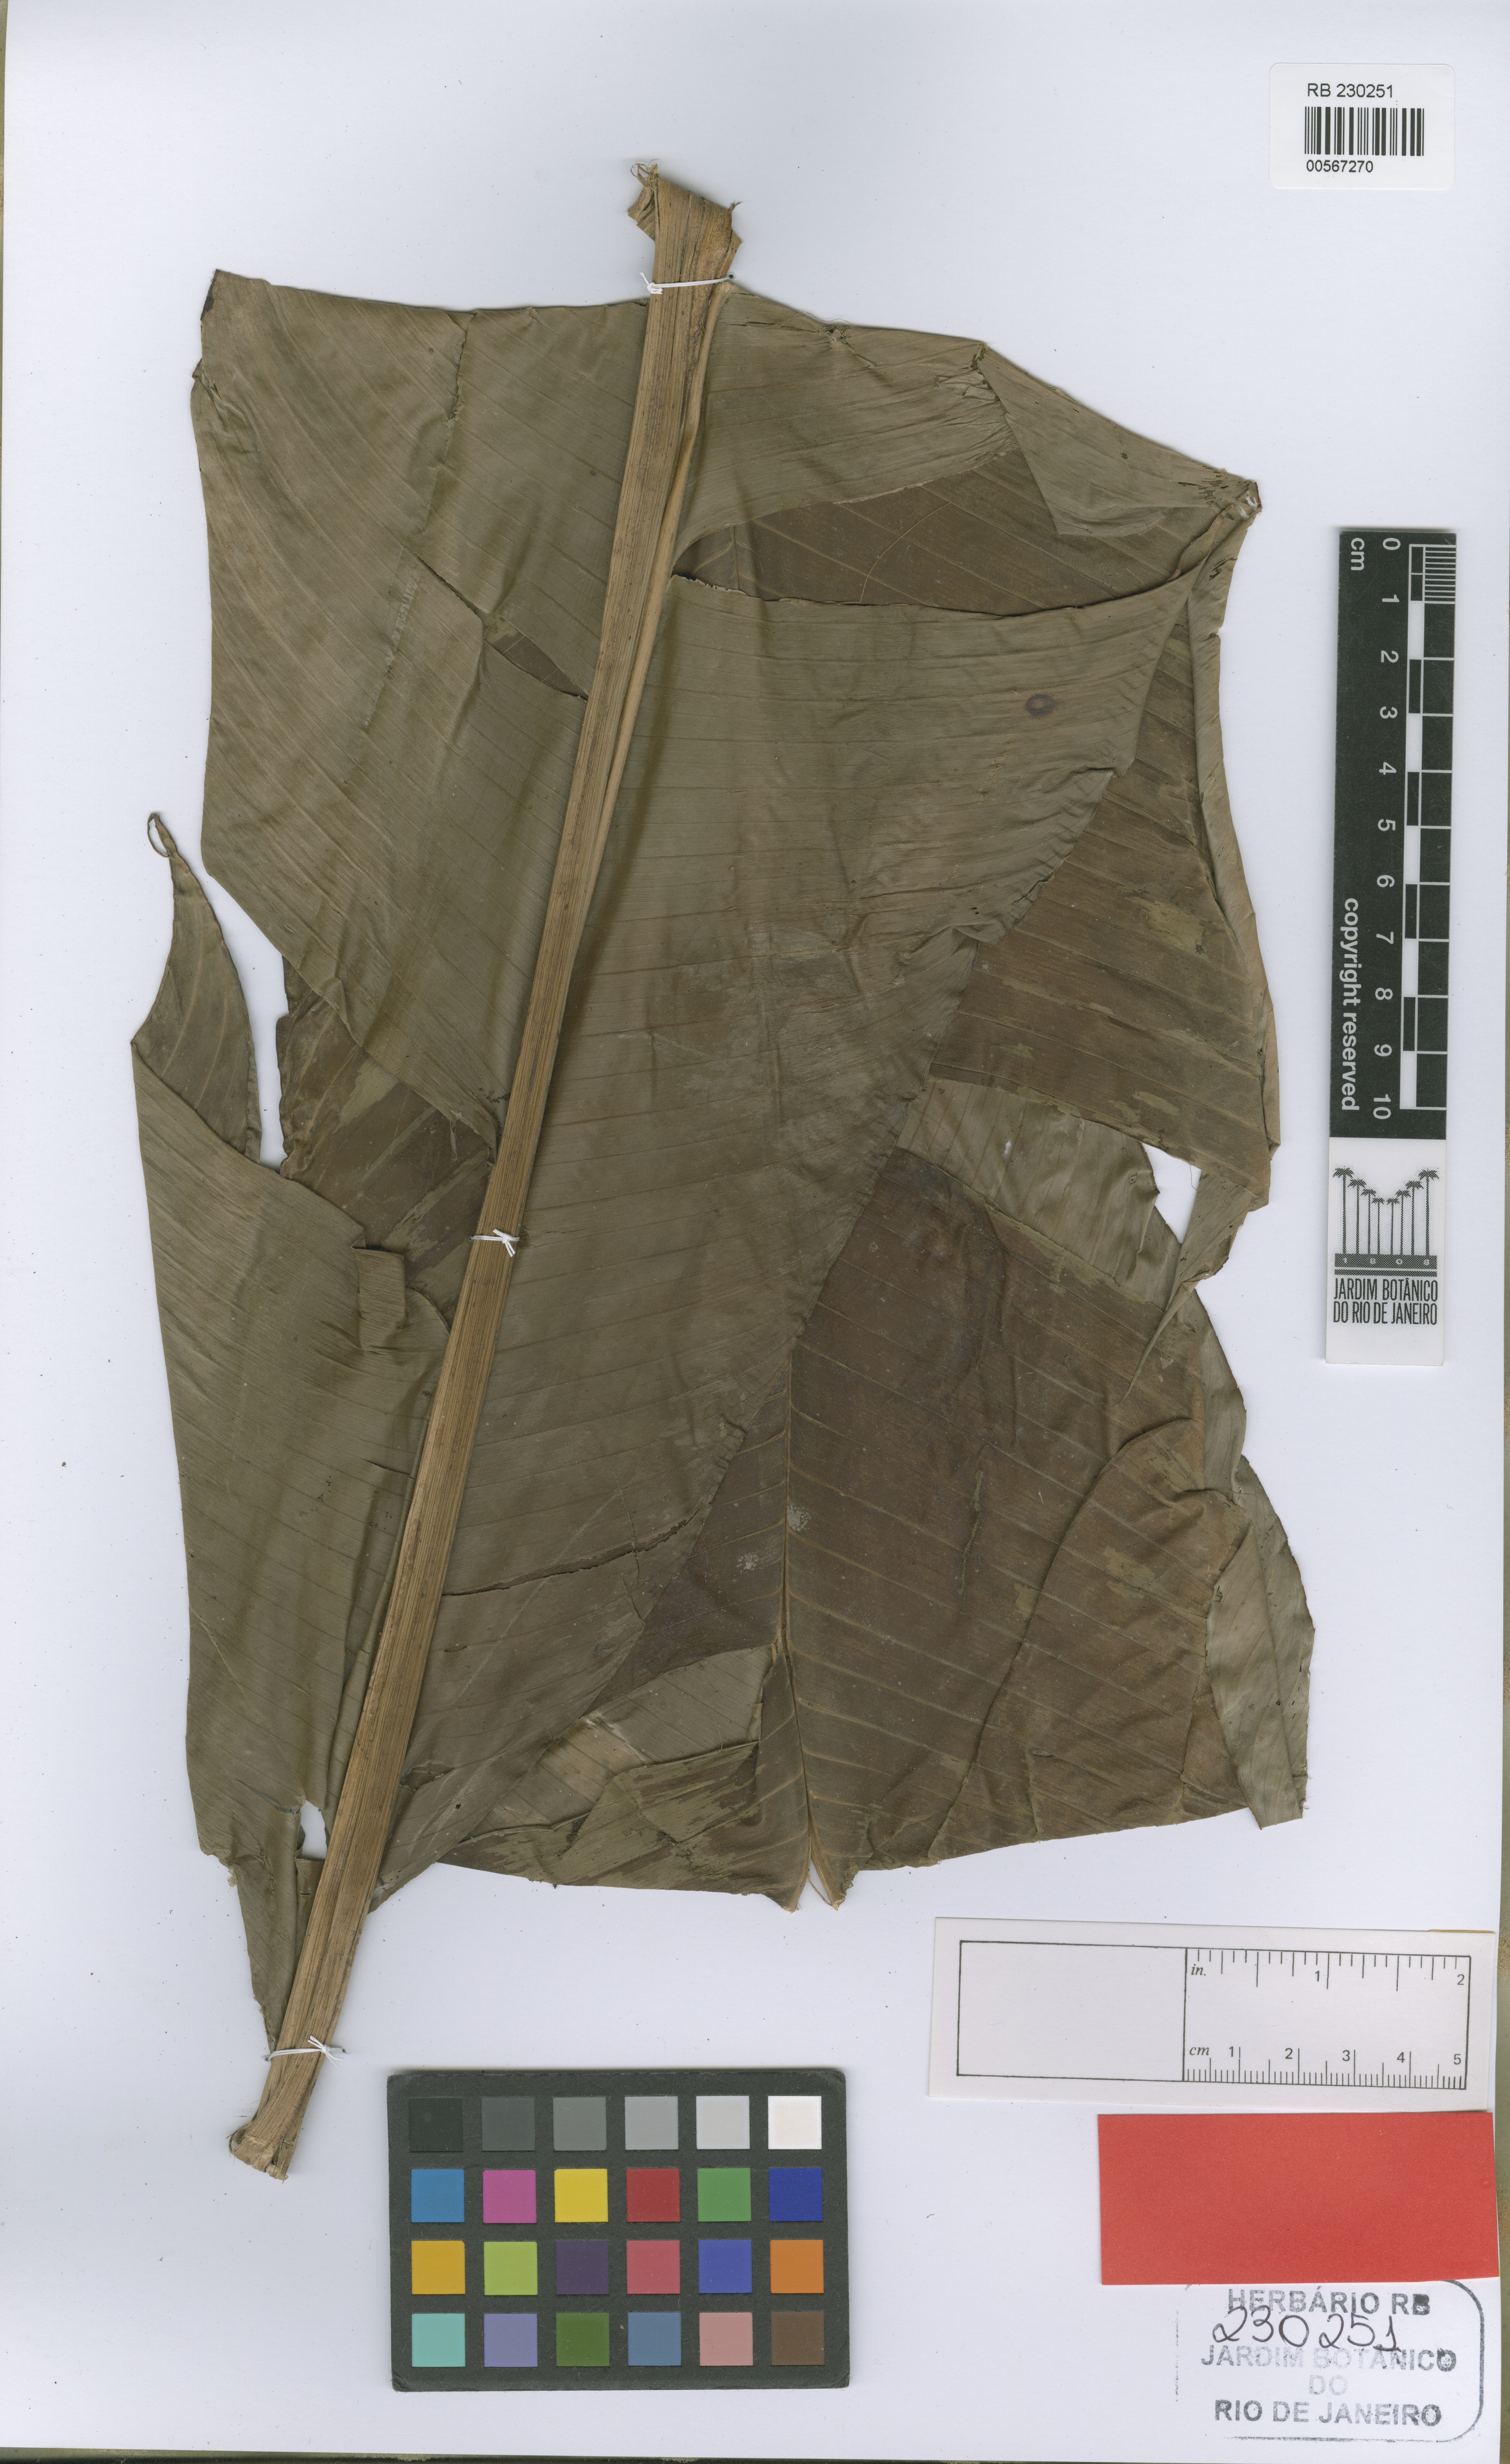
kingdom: Plantae
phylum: Tracheophyta
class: Liliopsida
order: Zingiberales
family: Heliconiaceae
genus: Heliconia
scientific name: Heliconia cristata
